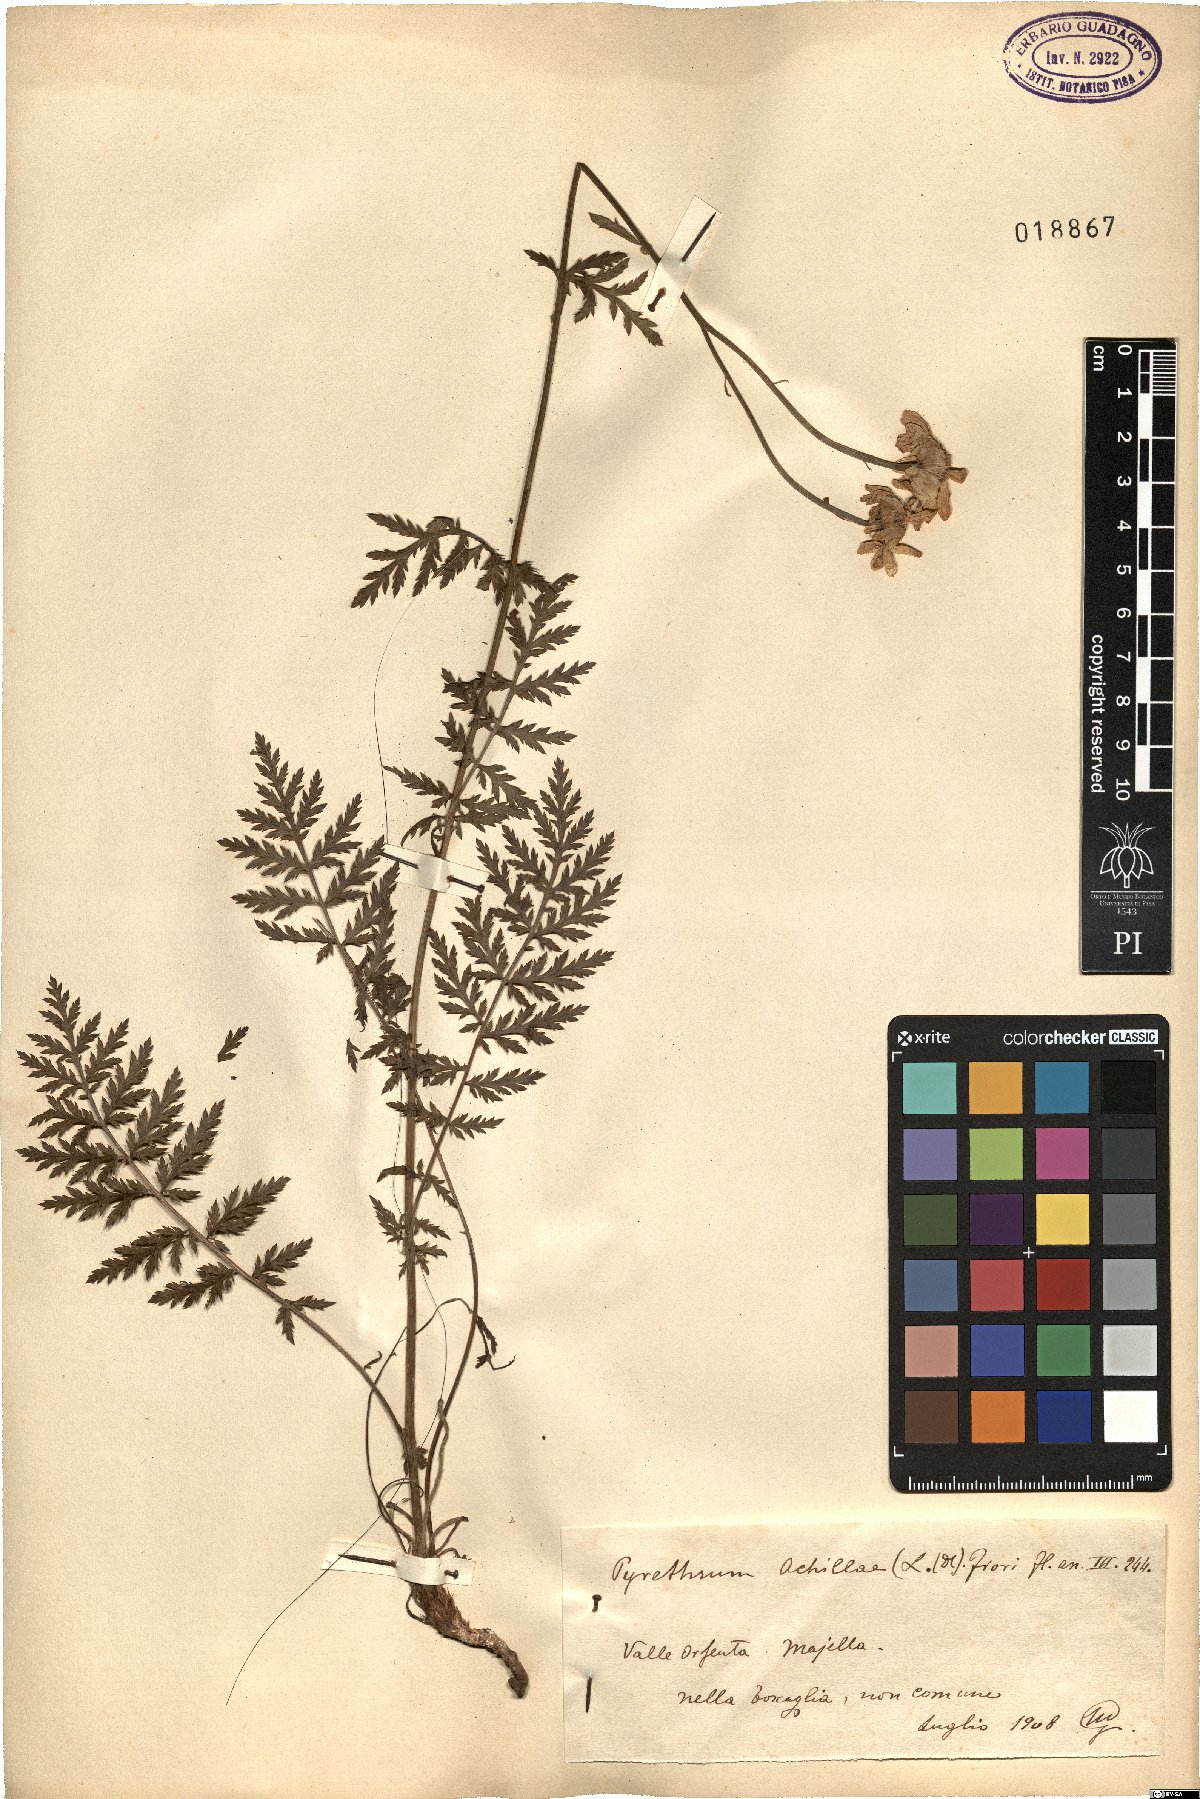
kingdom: Plantae
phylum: Tracheophyta
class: Magnoliopsida
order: Asterales
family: Asteraceae
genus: Tanacetum
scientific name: Tanacetum corymbosum
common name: Scentless feverfew
